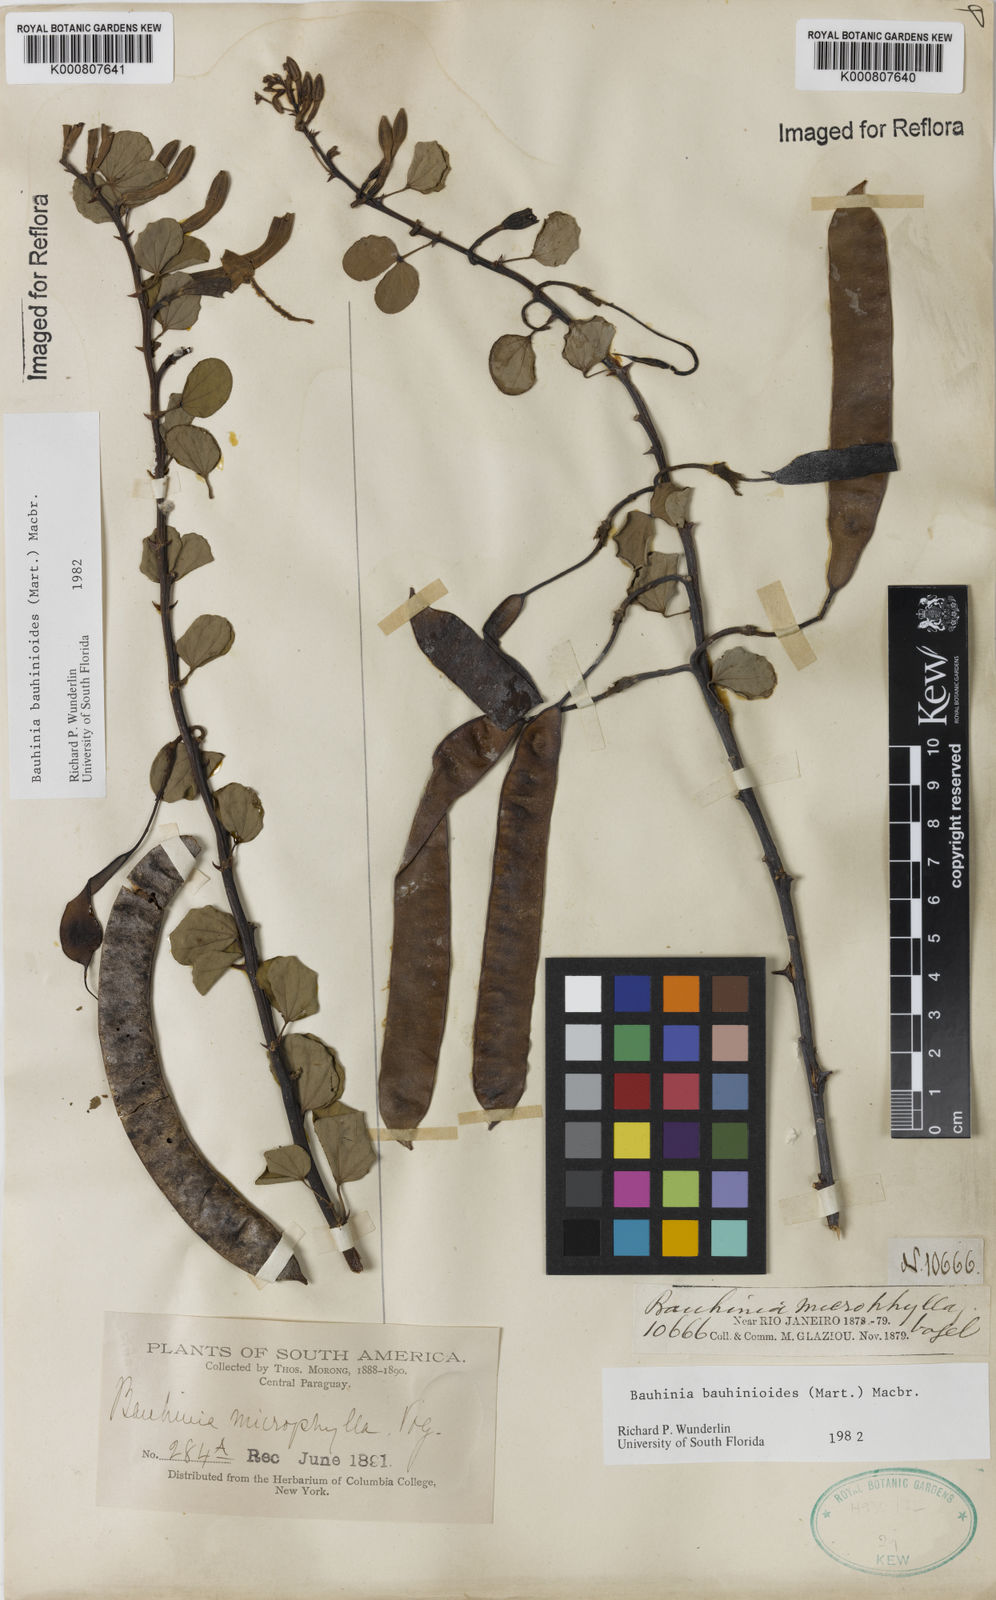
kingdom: Plantae
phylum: Tracheophyta
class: Magnoliopsida
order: Fabales
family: Fabaceae
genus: Bauhinia
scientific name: Bauhinia bauhinioides
